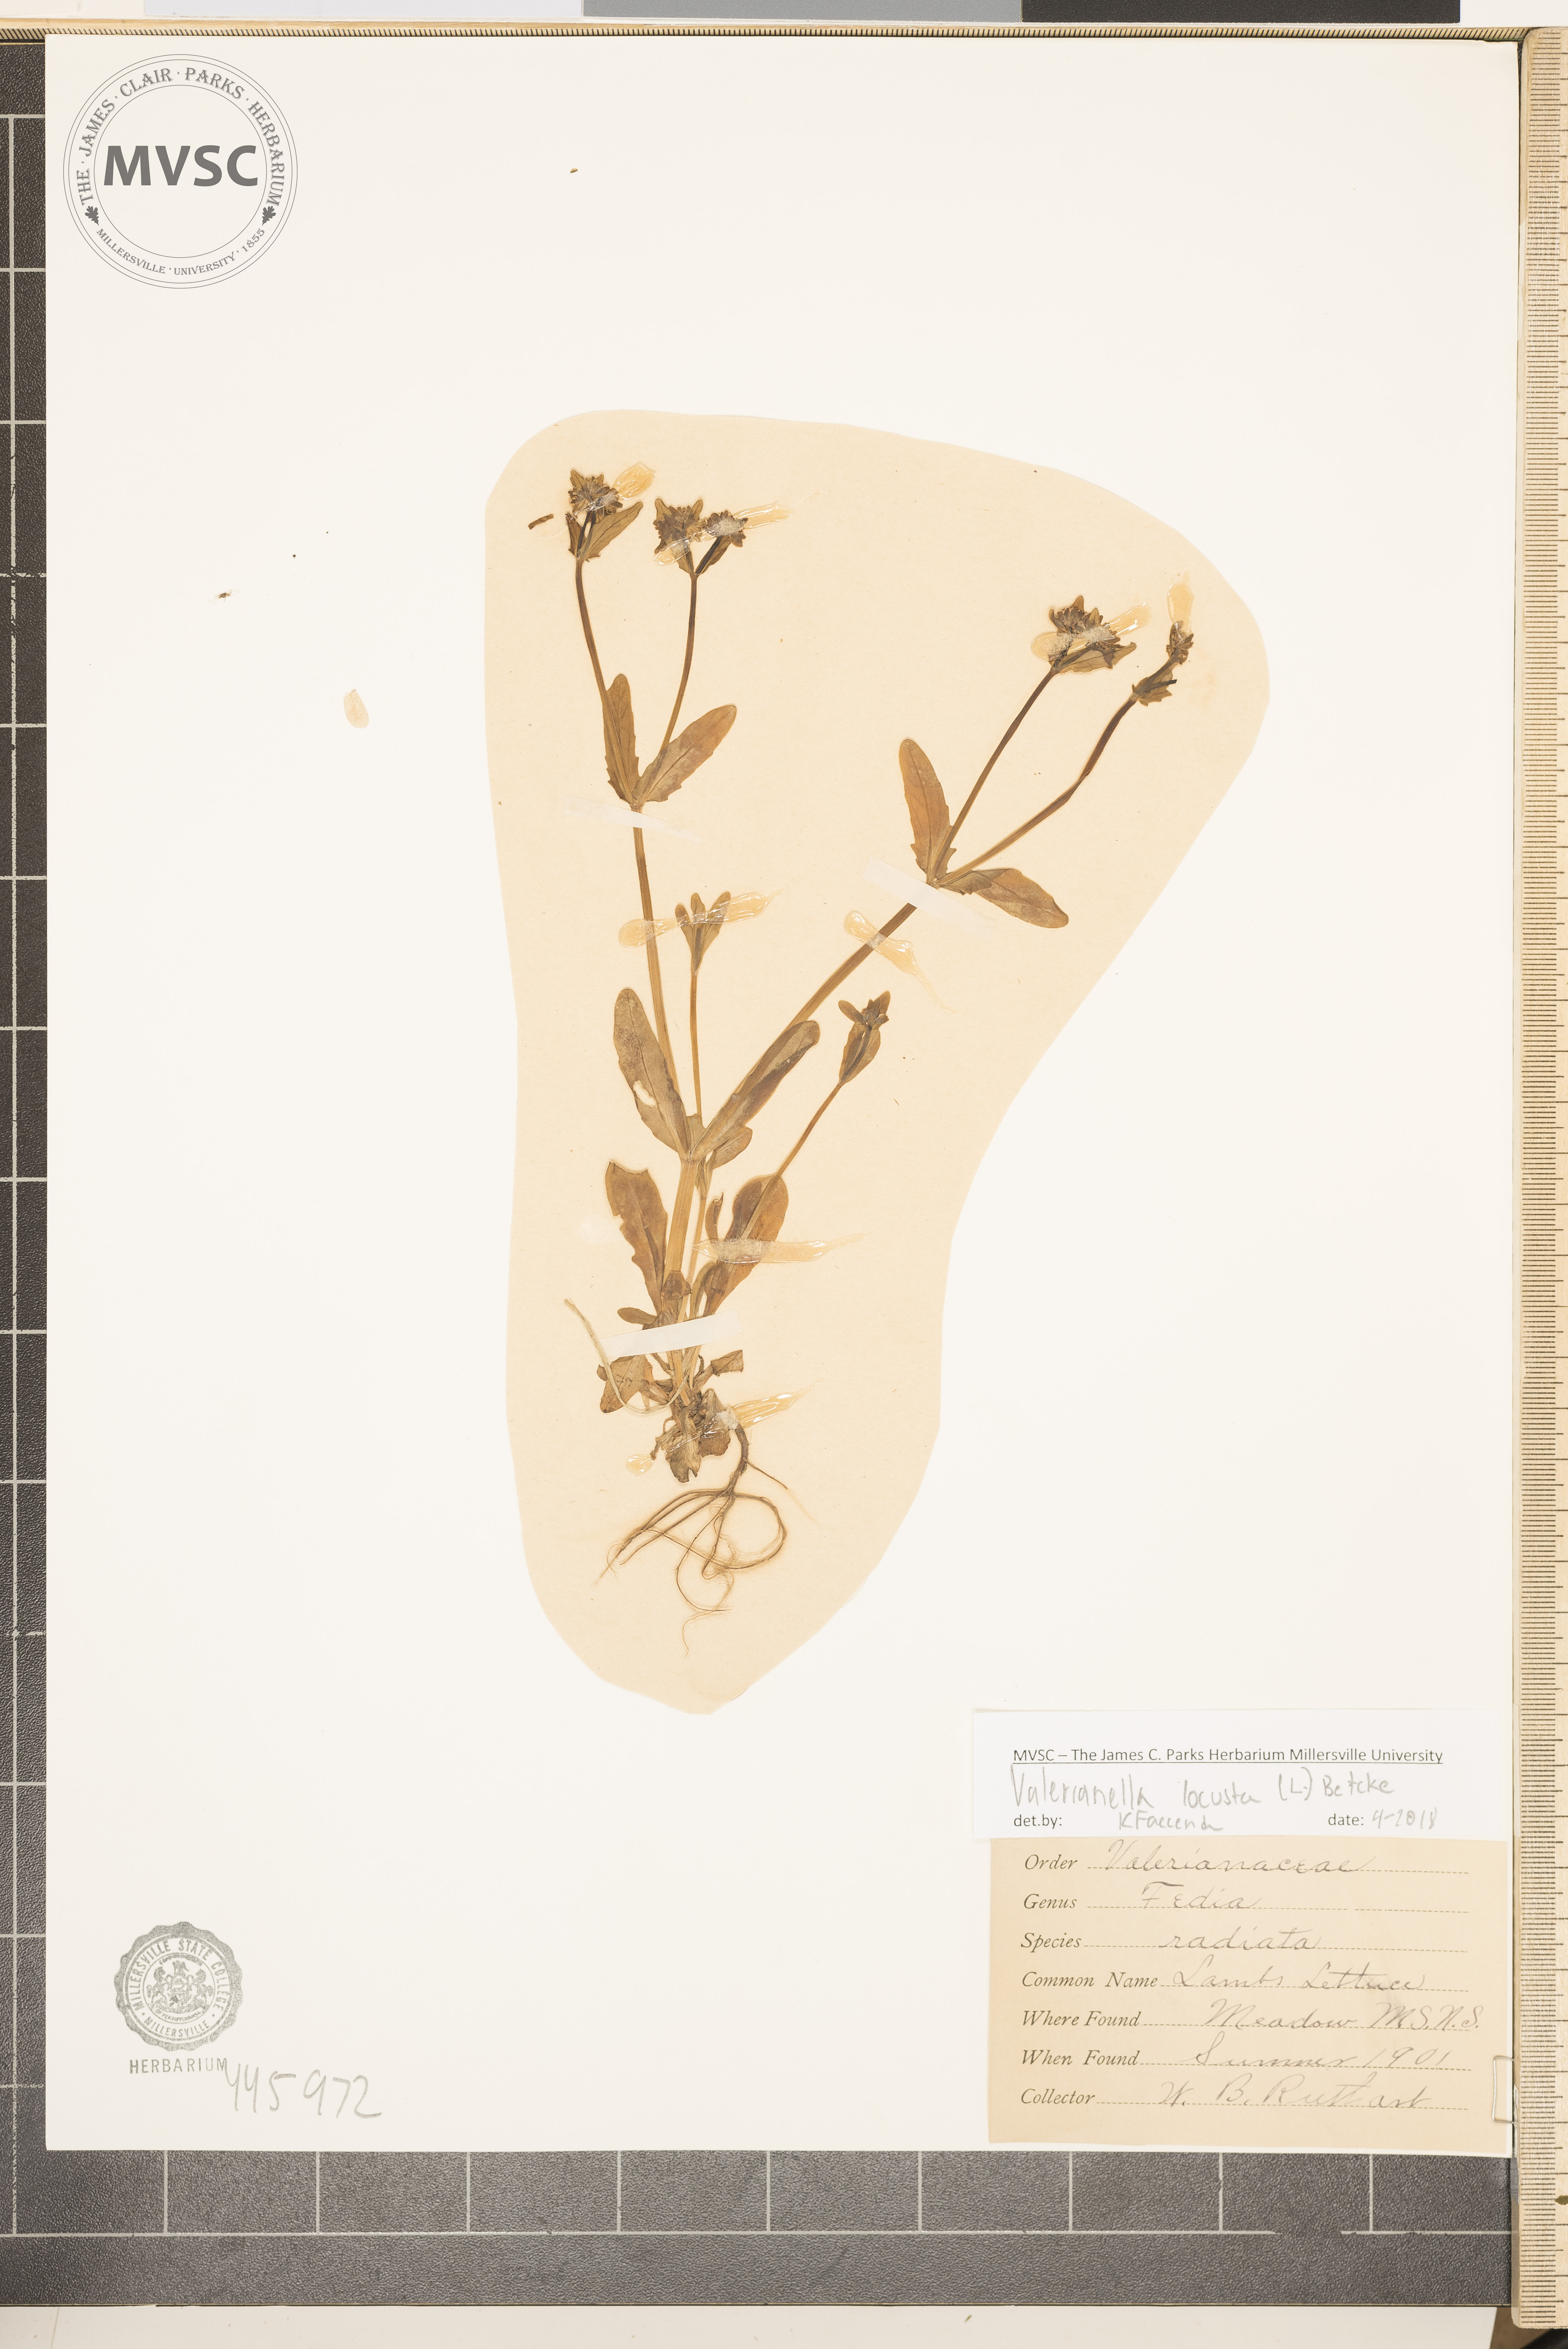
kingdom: Plantae
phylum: Tracheophyta
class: Magnoliopsida
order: Dipsacales
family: Caprifoliaceae
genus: Valerianella
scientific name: Valerianella locusta
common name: Lamb's lettuce
